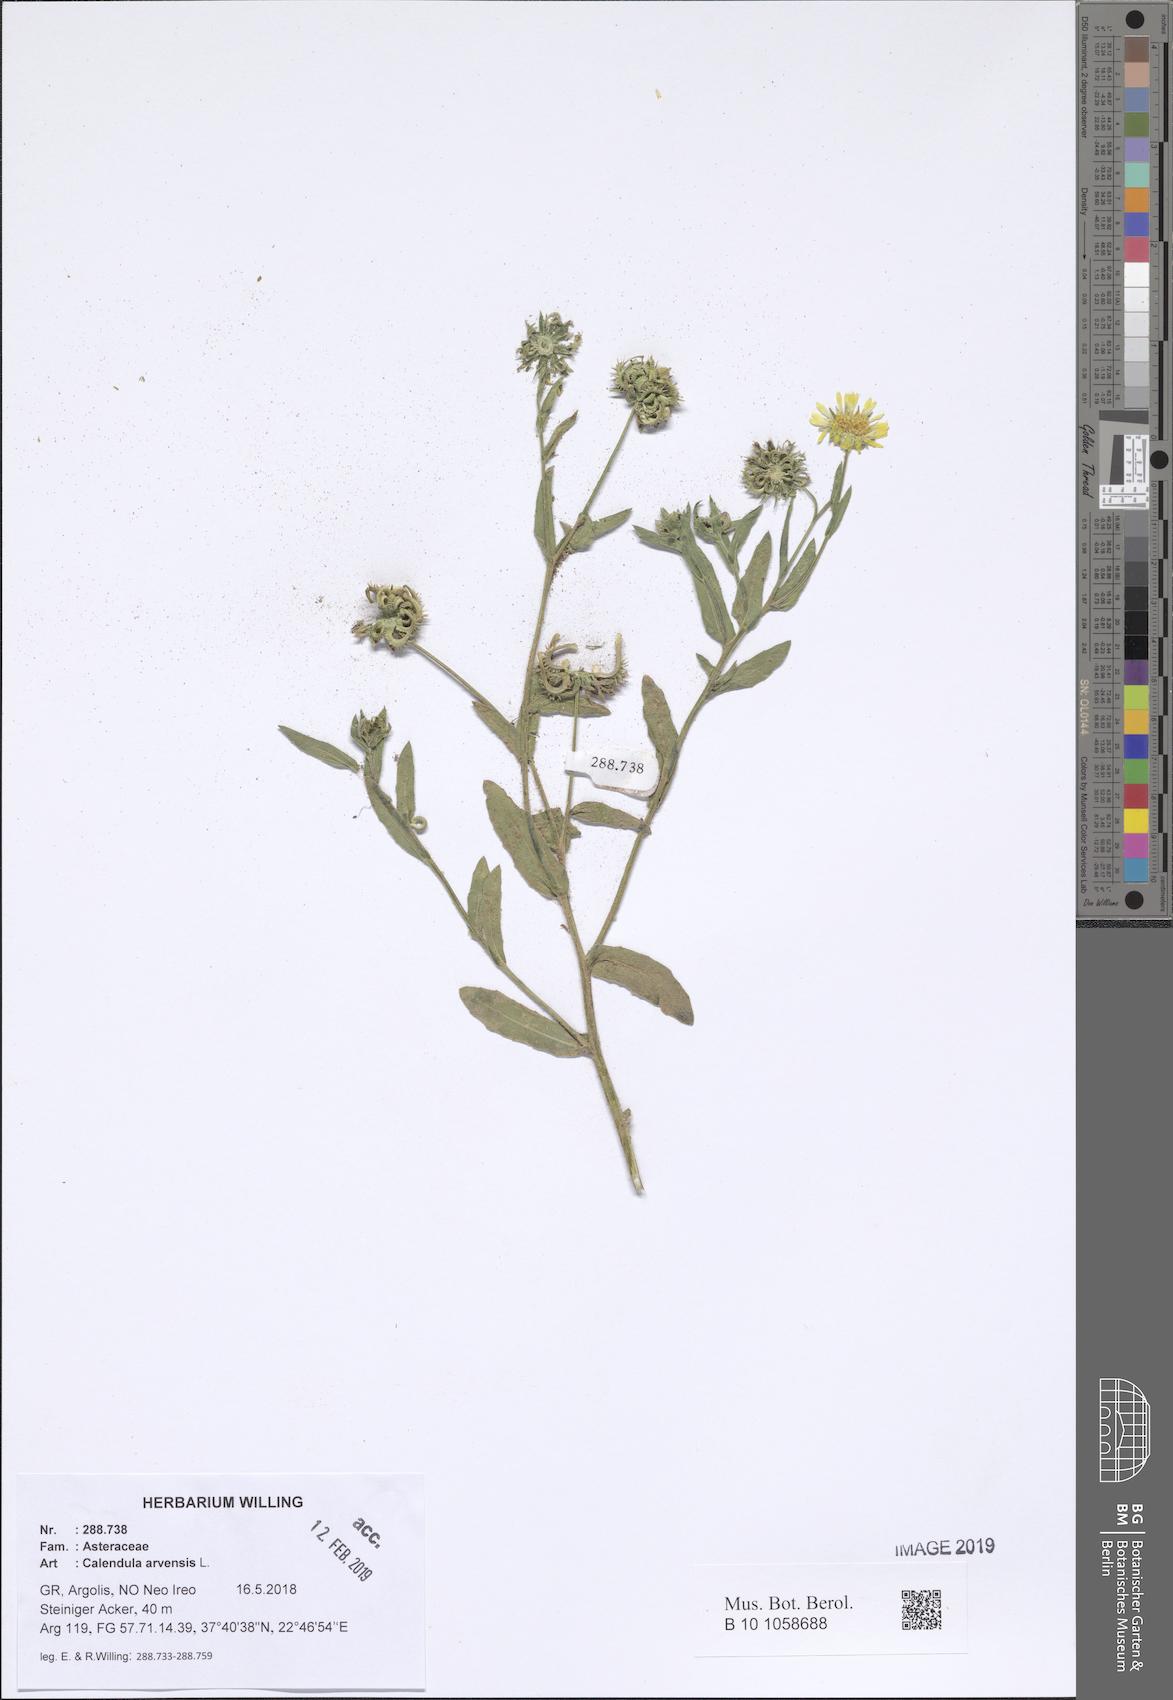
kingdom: Plantae
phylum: Tracheophyta
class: Magnoliopsida
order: Asterales
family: Asteraceae
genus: Calendula
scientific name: Calendula arvensis
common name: Field marigold
